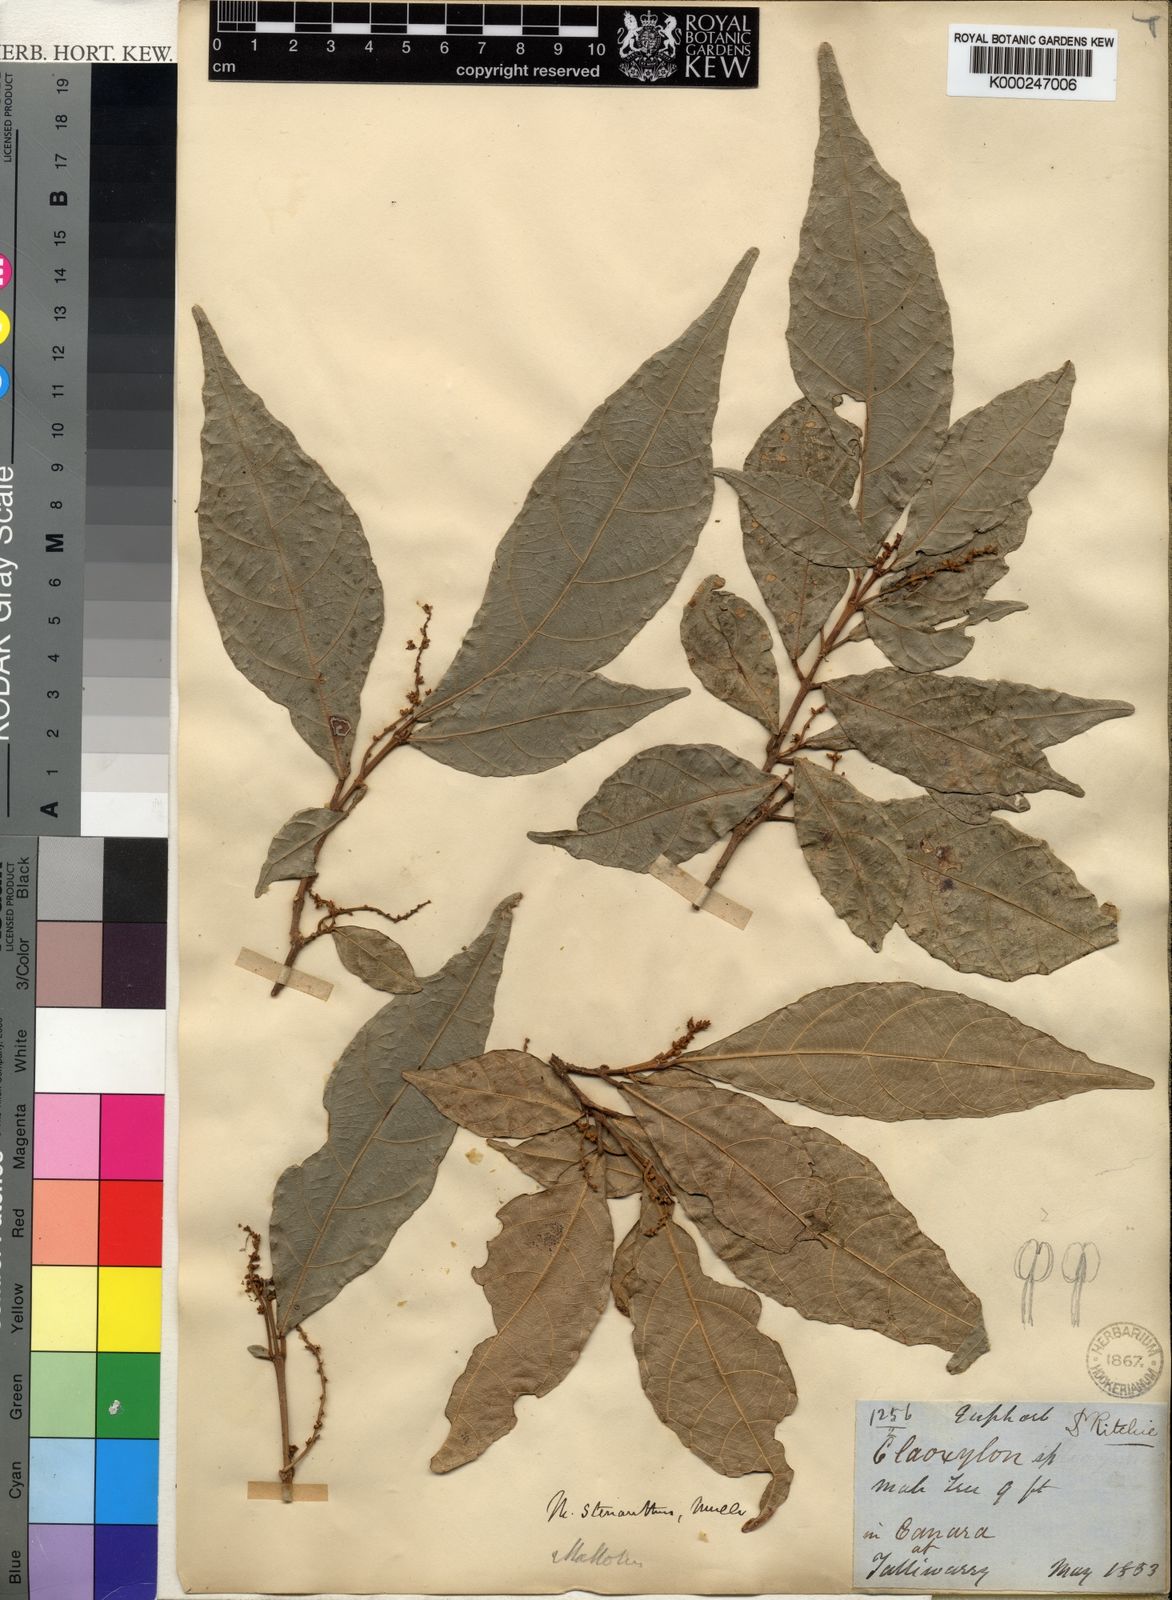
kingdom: Plantae
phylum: Tracheophyta
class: Magnoliopsida
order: Malpighiales
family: Euphorbiaceae
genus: Mallotus
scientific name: Mallotus resinosus
